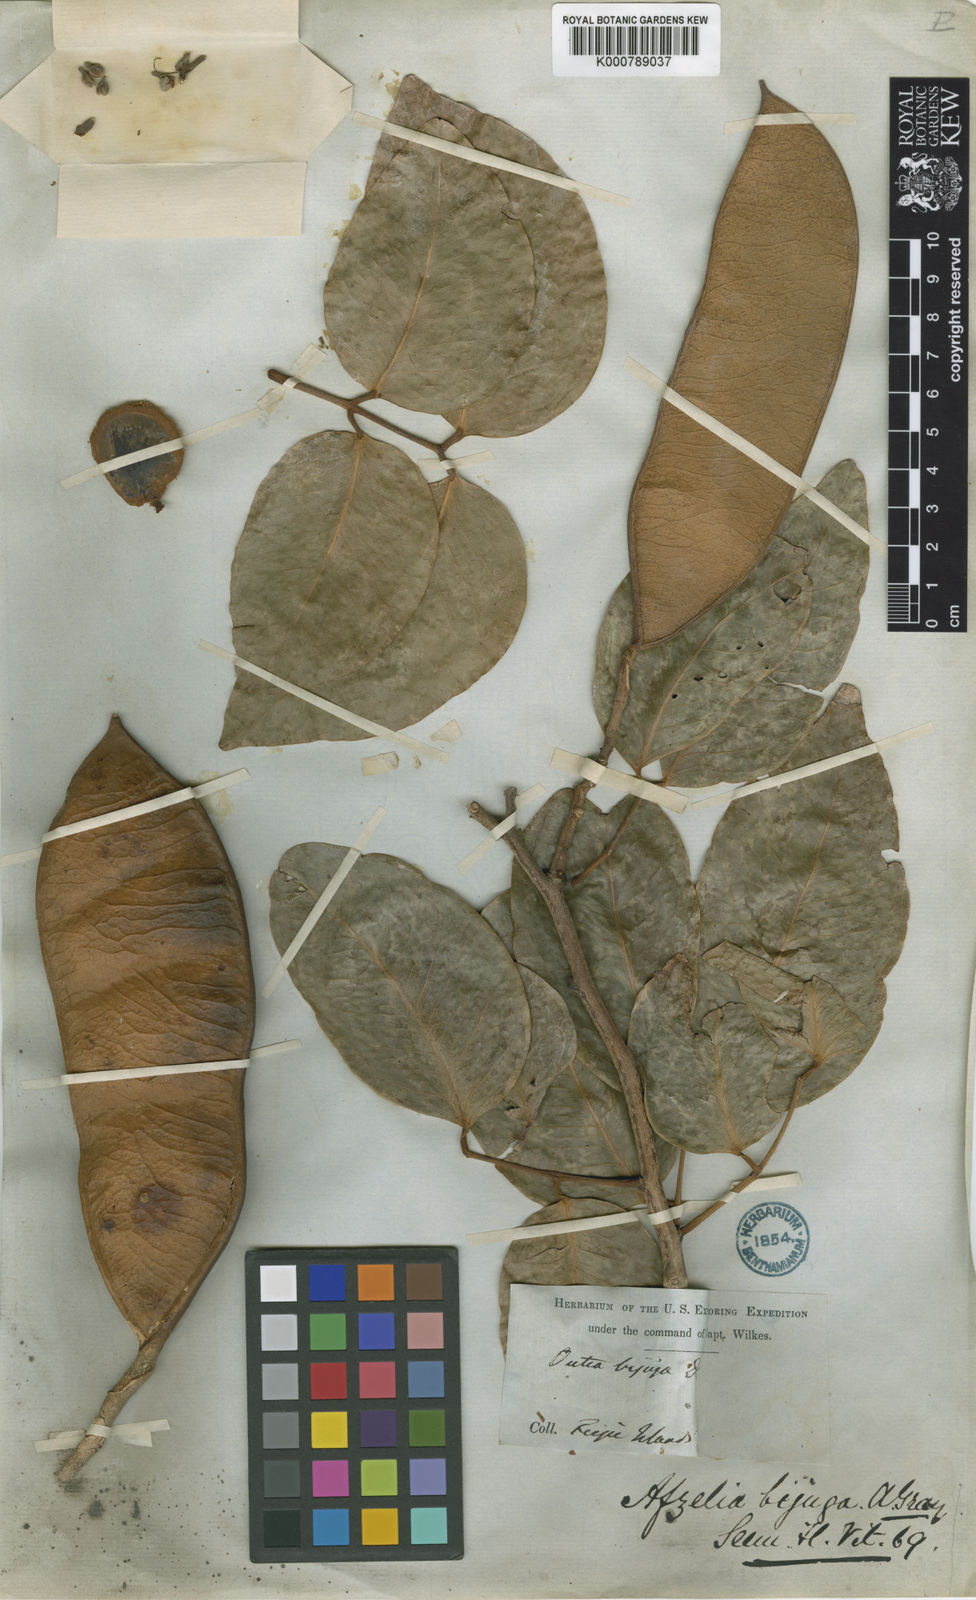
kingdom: Plantae
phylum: Tracheophyta
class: Magnoliopsida
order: Fabales
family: Fabaceae
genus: Intsia
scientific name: Intsia bijuga
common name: Moluccan ironwood
